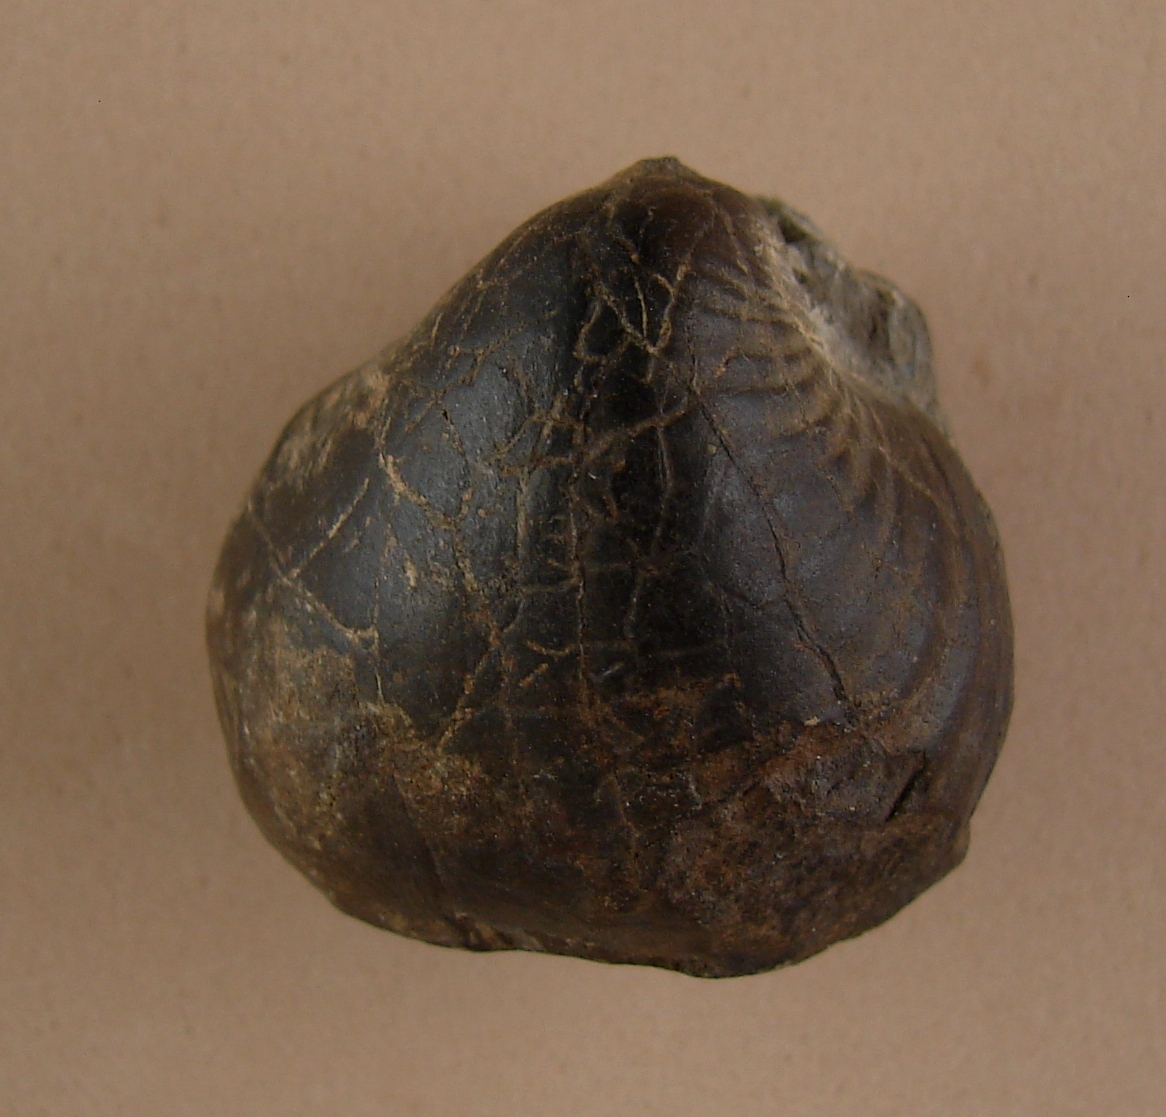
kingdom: Animalia
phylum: Mollusca
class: Bivalvia
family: Sanguinolitidae
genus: Wilkingia
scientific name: Wilkingia Allorisma inflata
